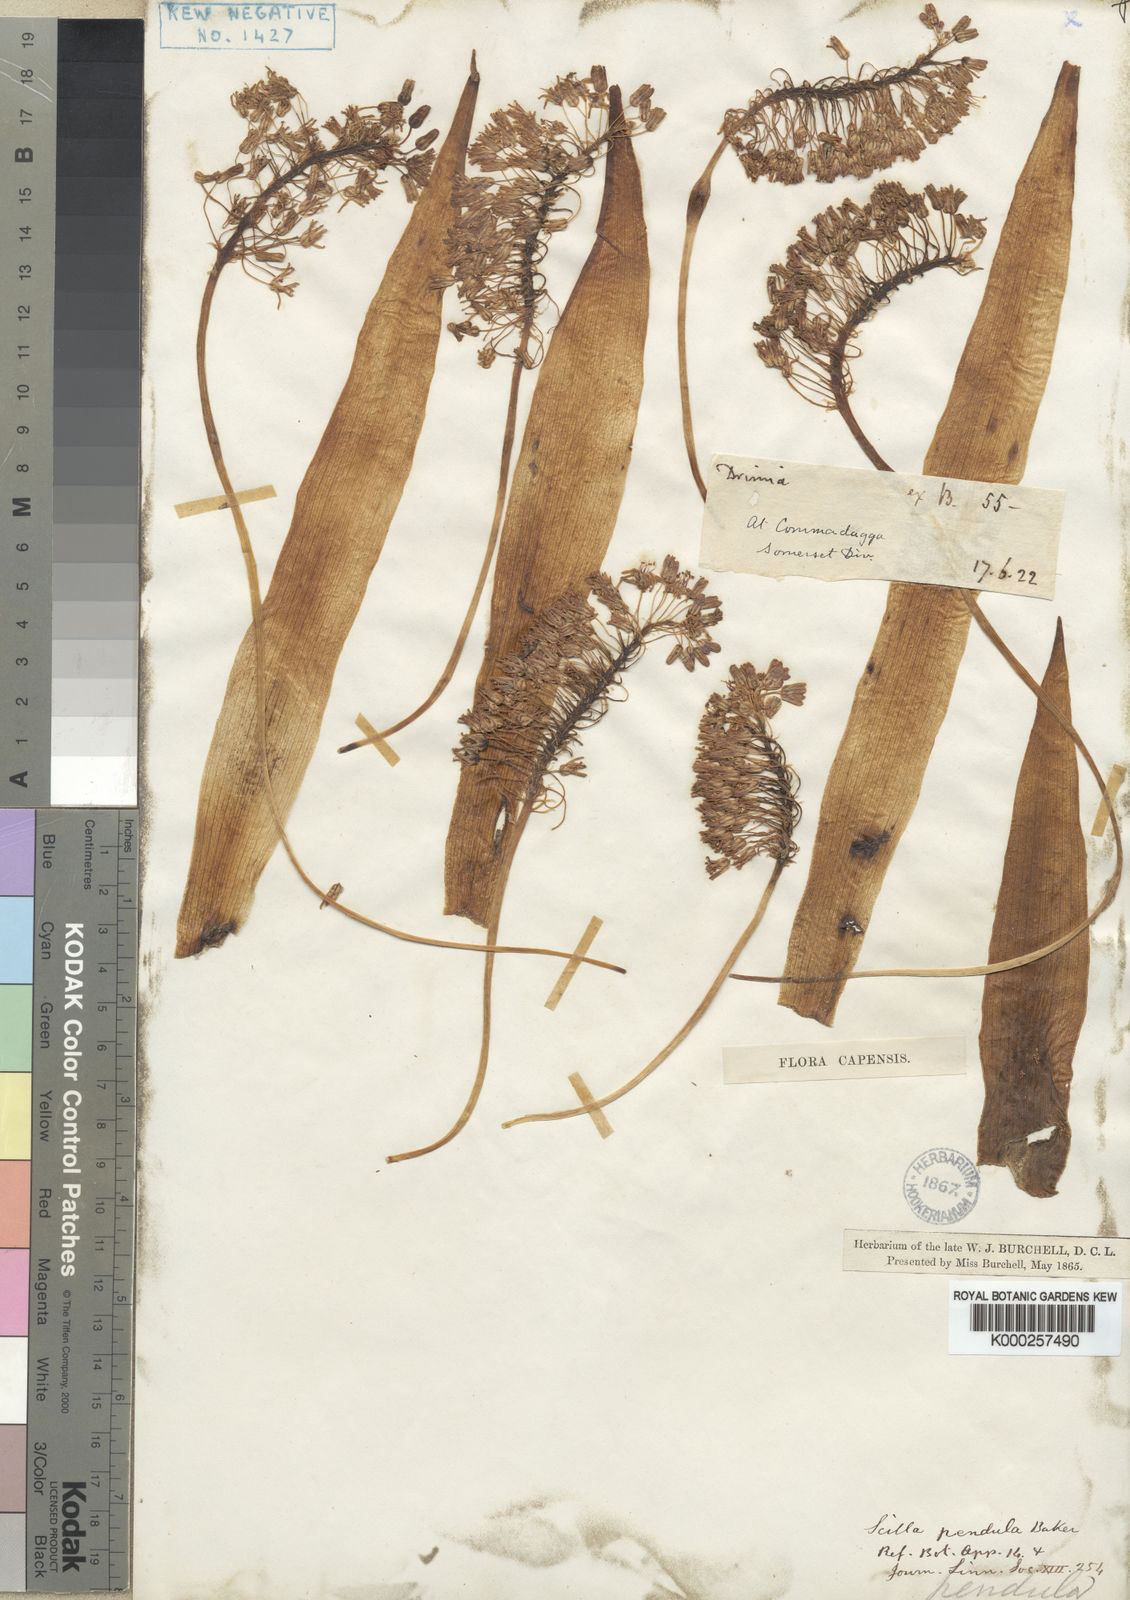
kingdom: Plantae
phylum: Tracheophyta
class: Liliopsida
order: Asparagales
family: Asparagaceae
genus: Ledebouria
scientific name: Ledebouria floribunda
